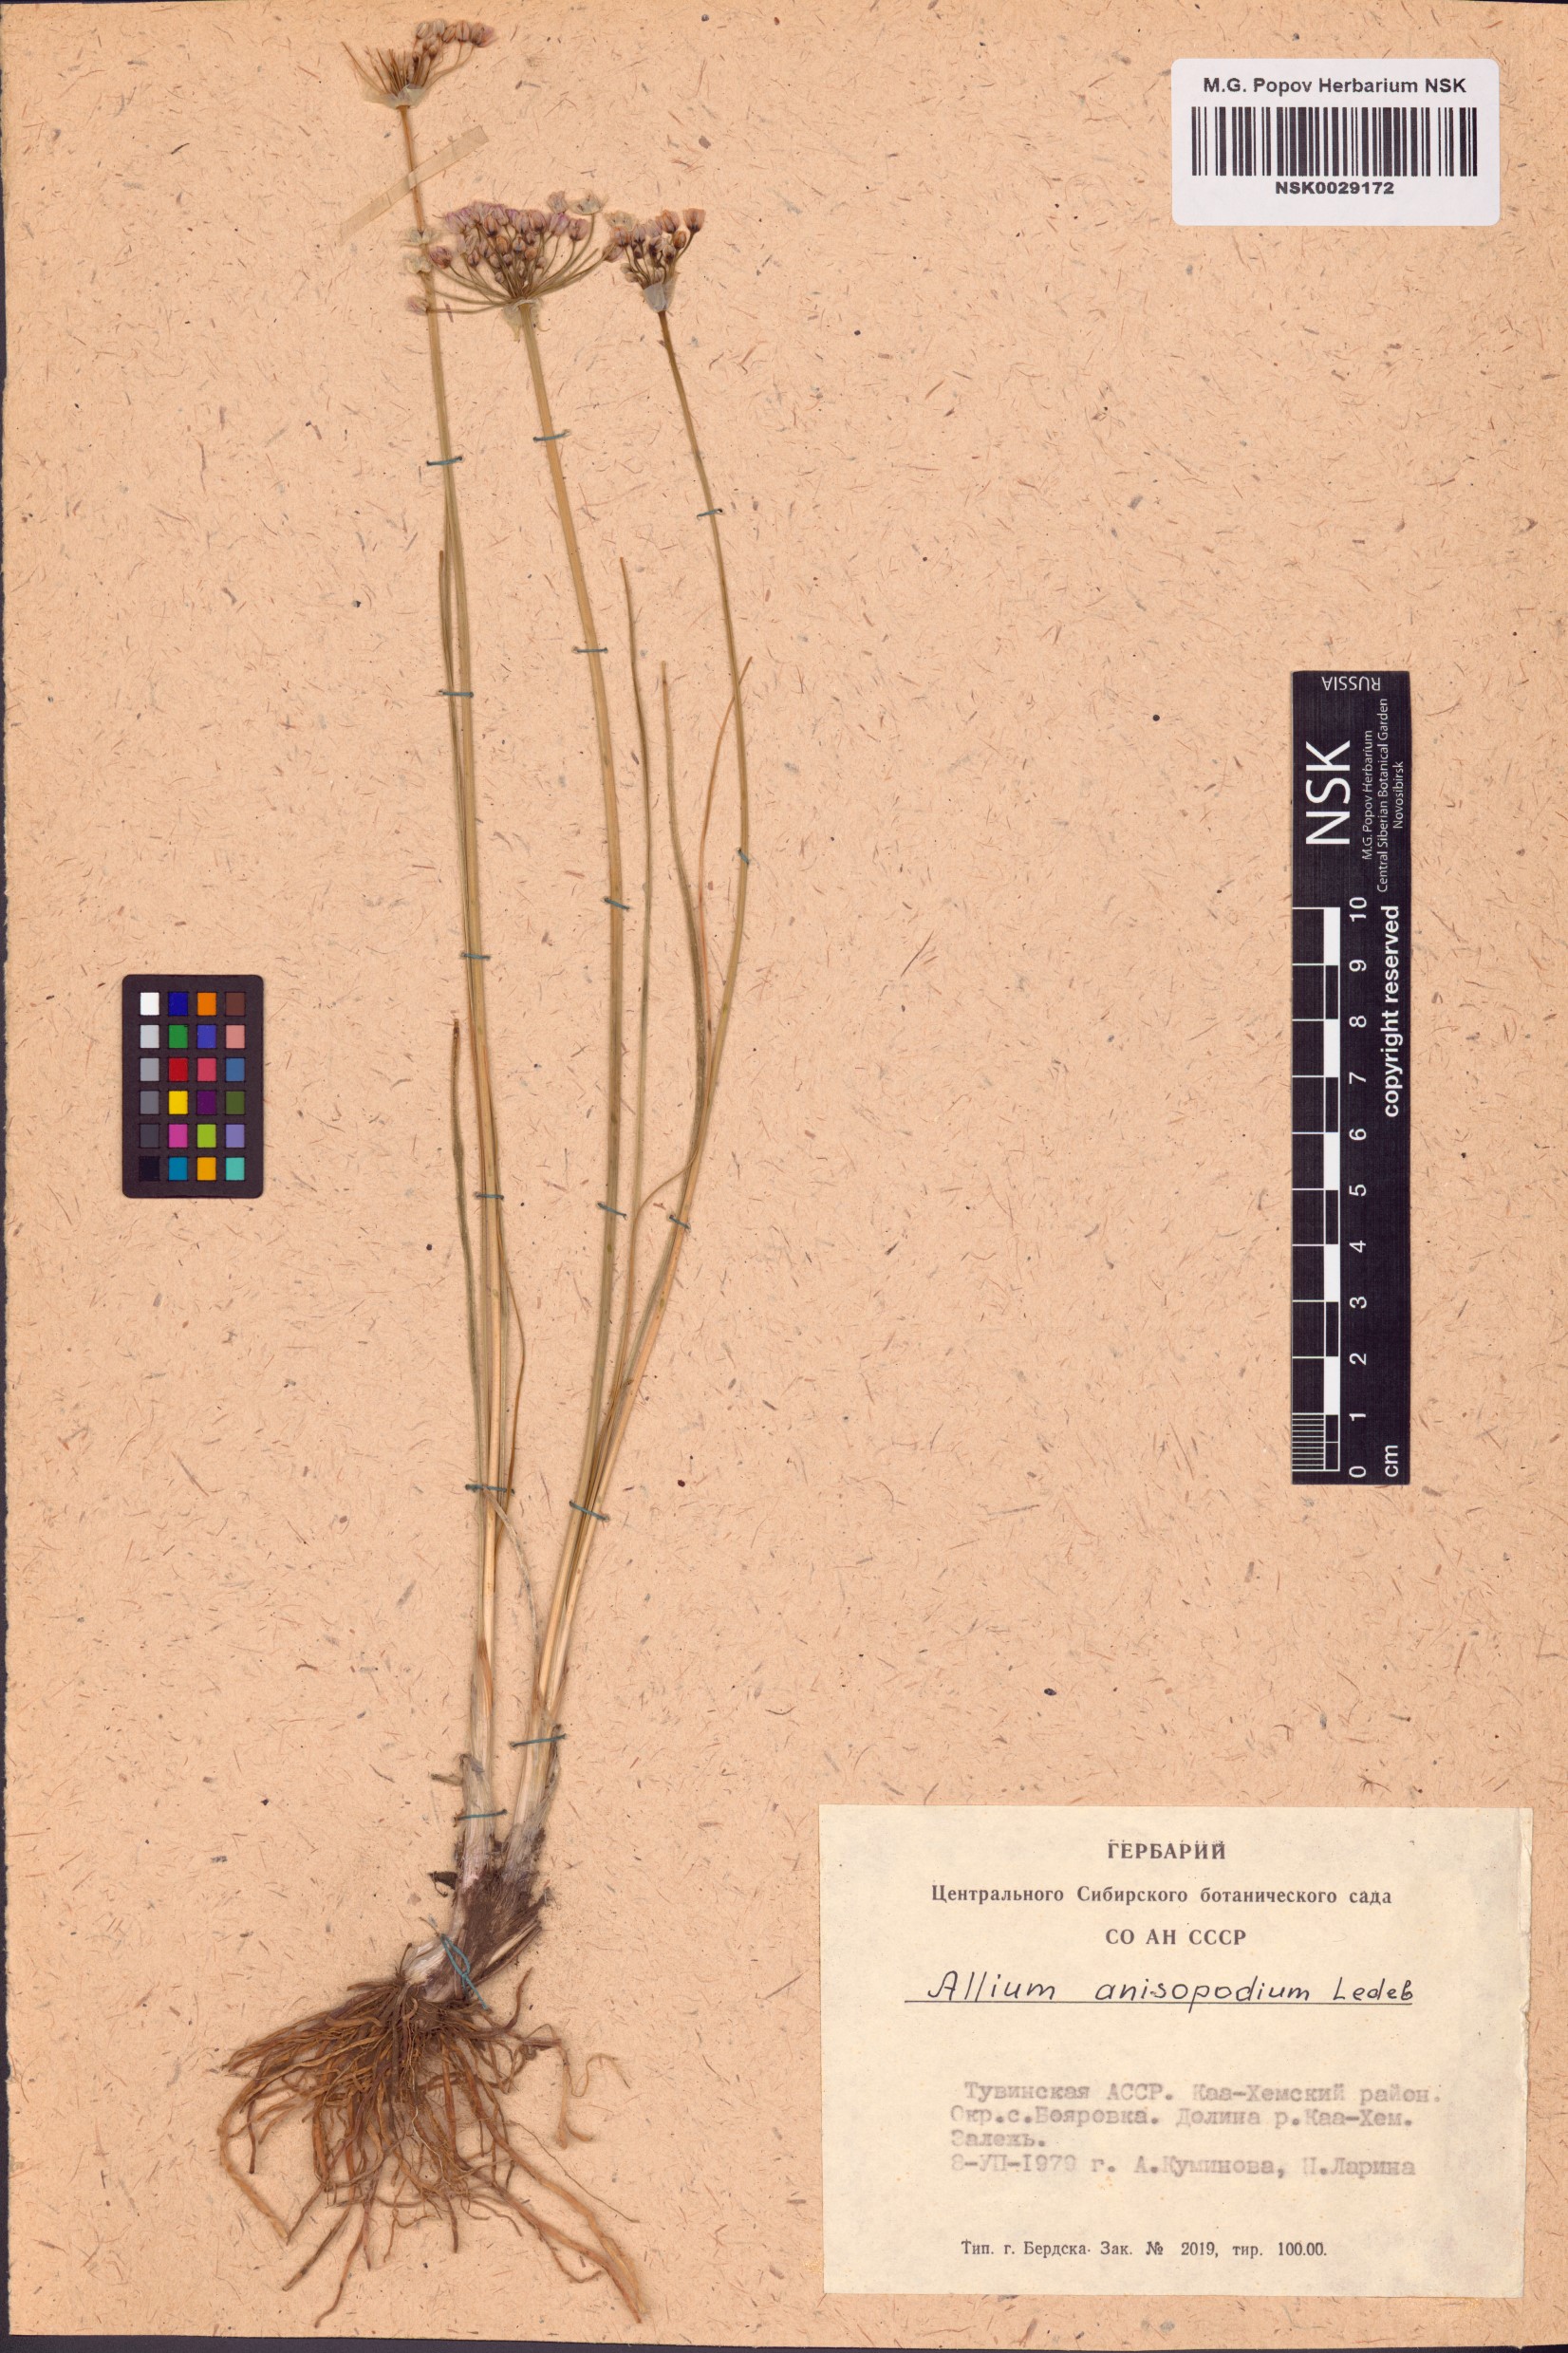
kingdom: Plantae
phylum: Tracheophyta
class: Liliopsida
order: Asparagales
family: Amaryllidaceae
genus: Allium
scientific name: Allium anisopodium
